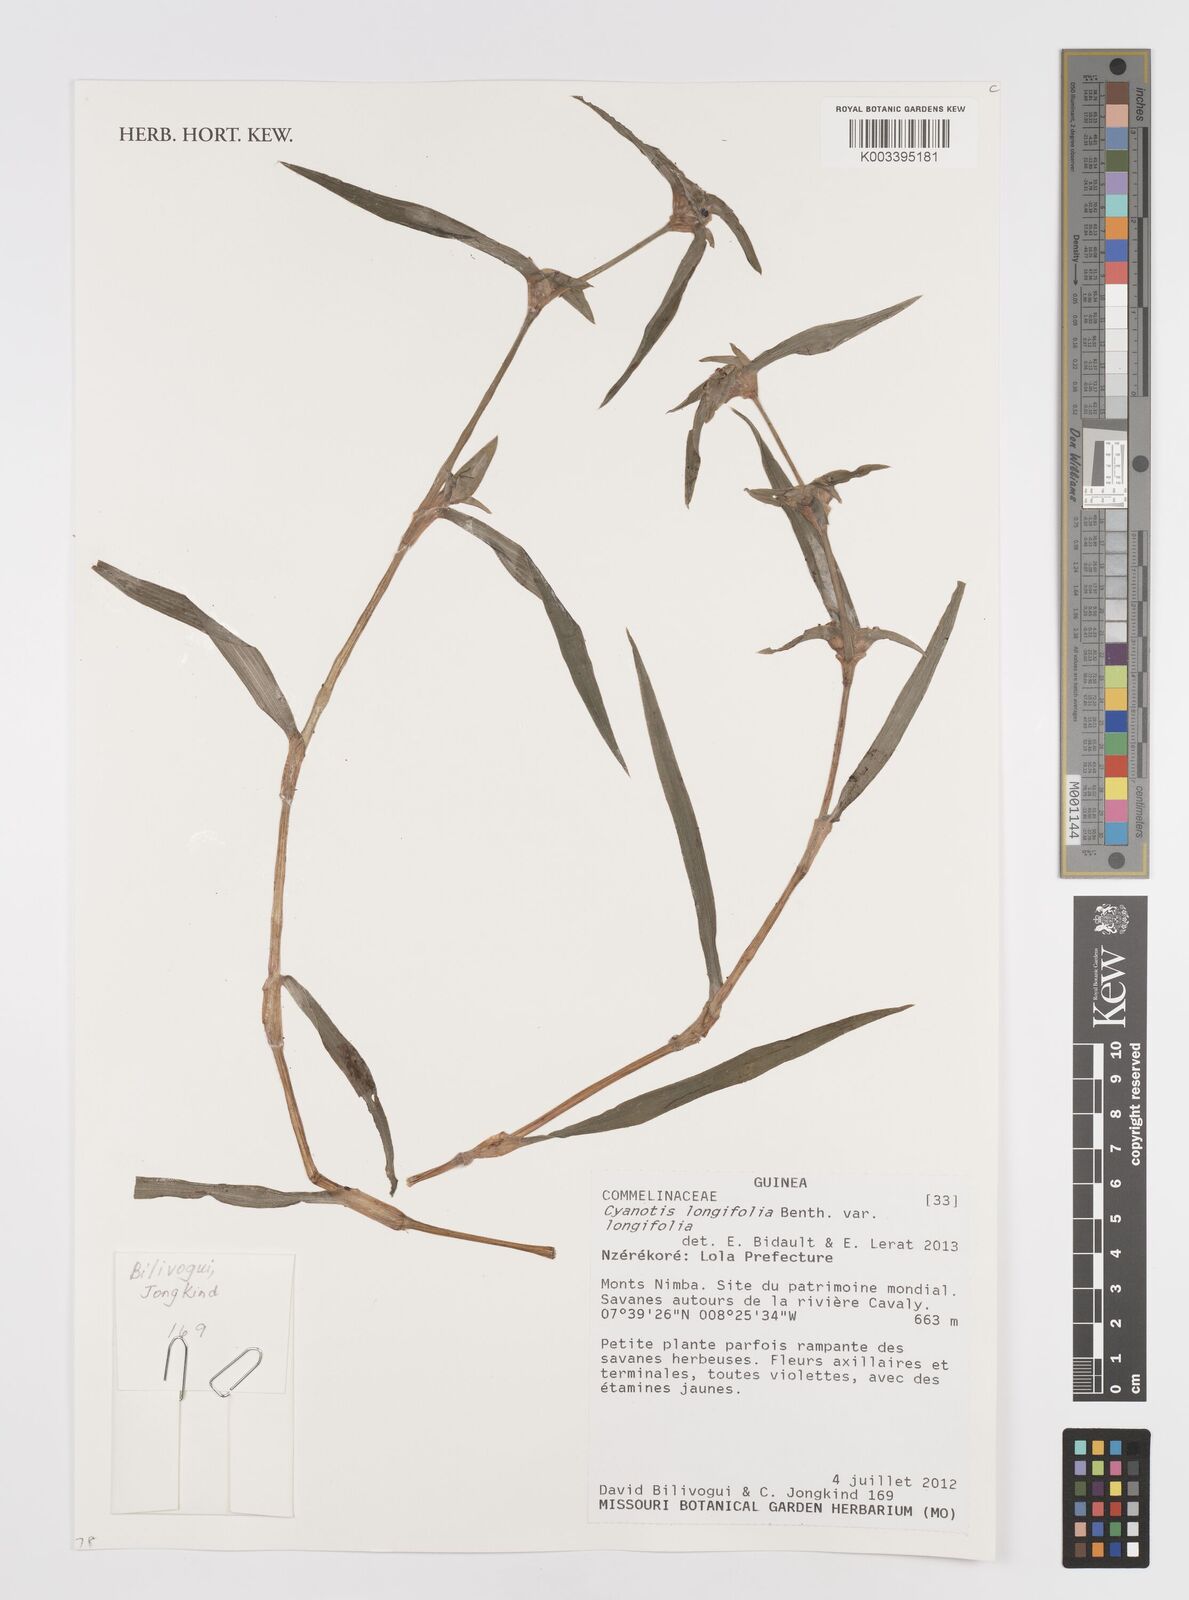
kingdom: Plantae
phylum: Tracheophyta
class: Liliopsida
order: Commelinales
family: Commelinaceae
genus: Cyanotis
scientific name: Cyanotis
